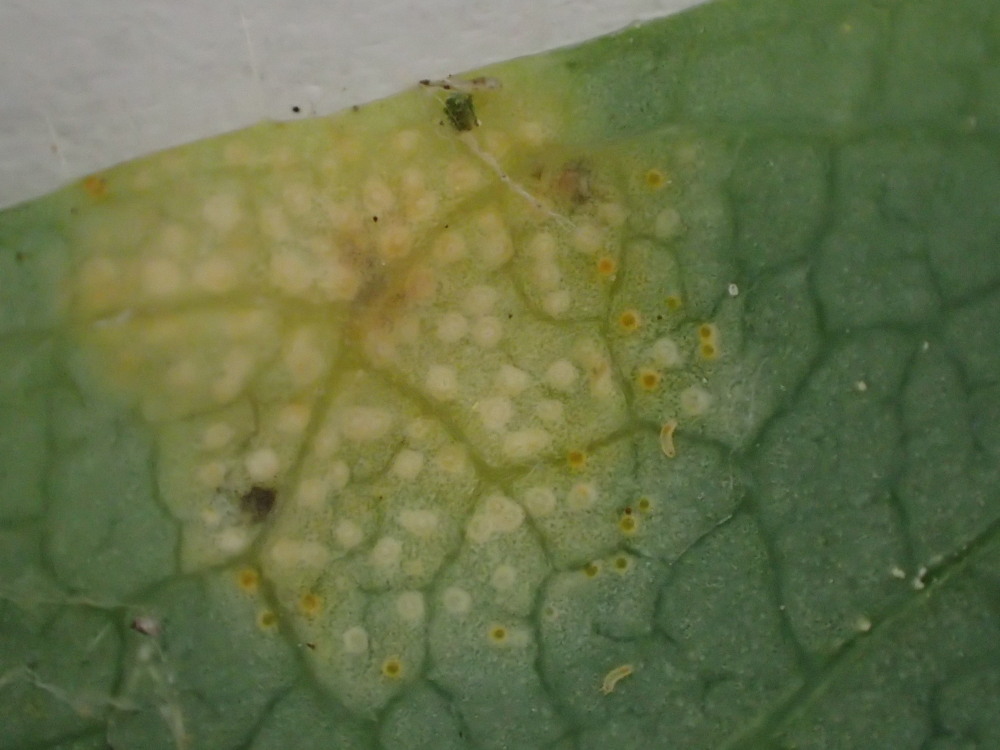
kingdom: Fungi
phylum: Basidiomycota
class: Pucciniomycetes
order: Pucciniales
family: Pucciniaceae
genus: Puccinia
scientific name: Puccinia festucae
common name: gedeblad-tvecellerust
